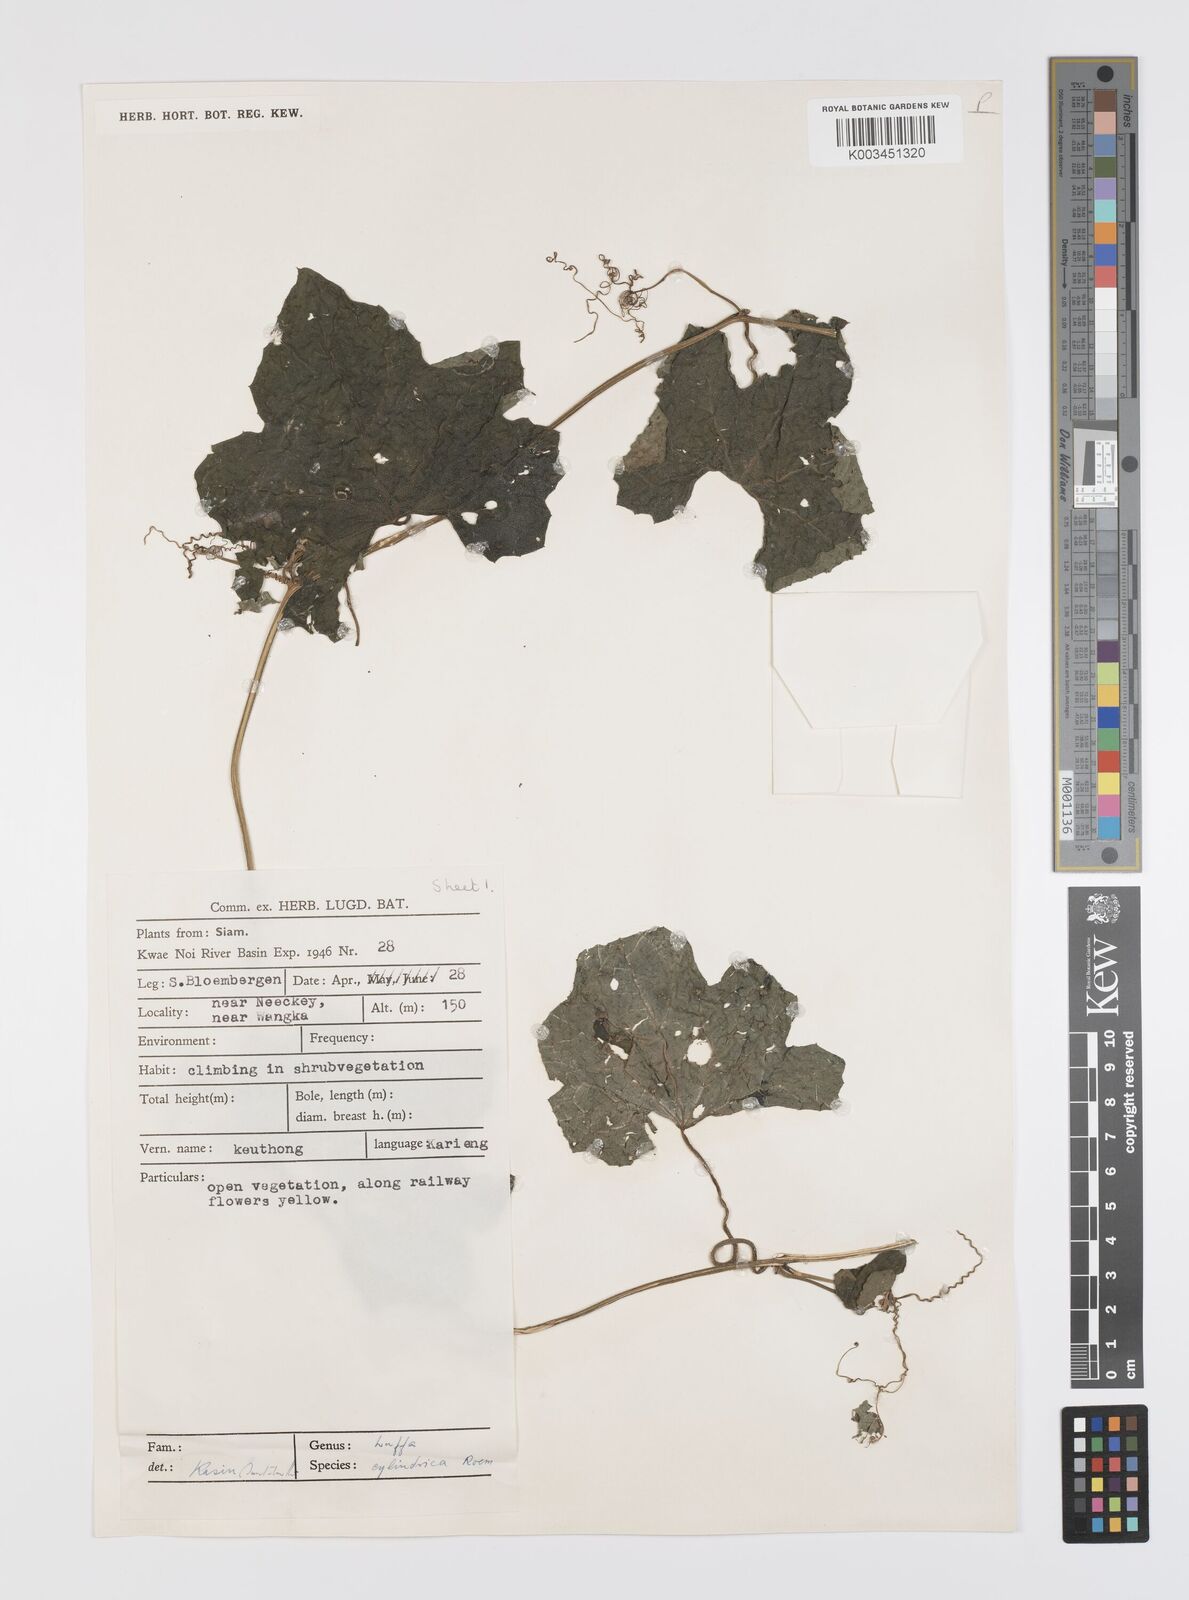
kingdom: Plantae
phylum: Tracheophyta
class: Magnoliopsida
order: Cucurbitales
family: Cucurbitaceae
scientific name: Cucurbitaceae
